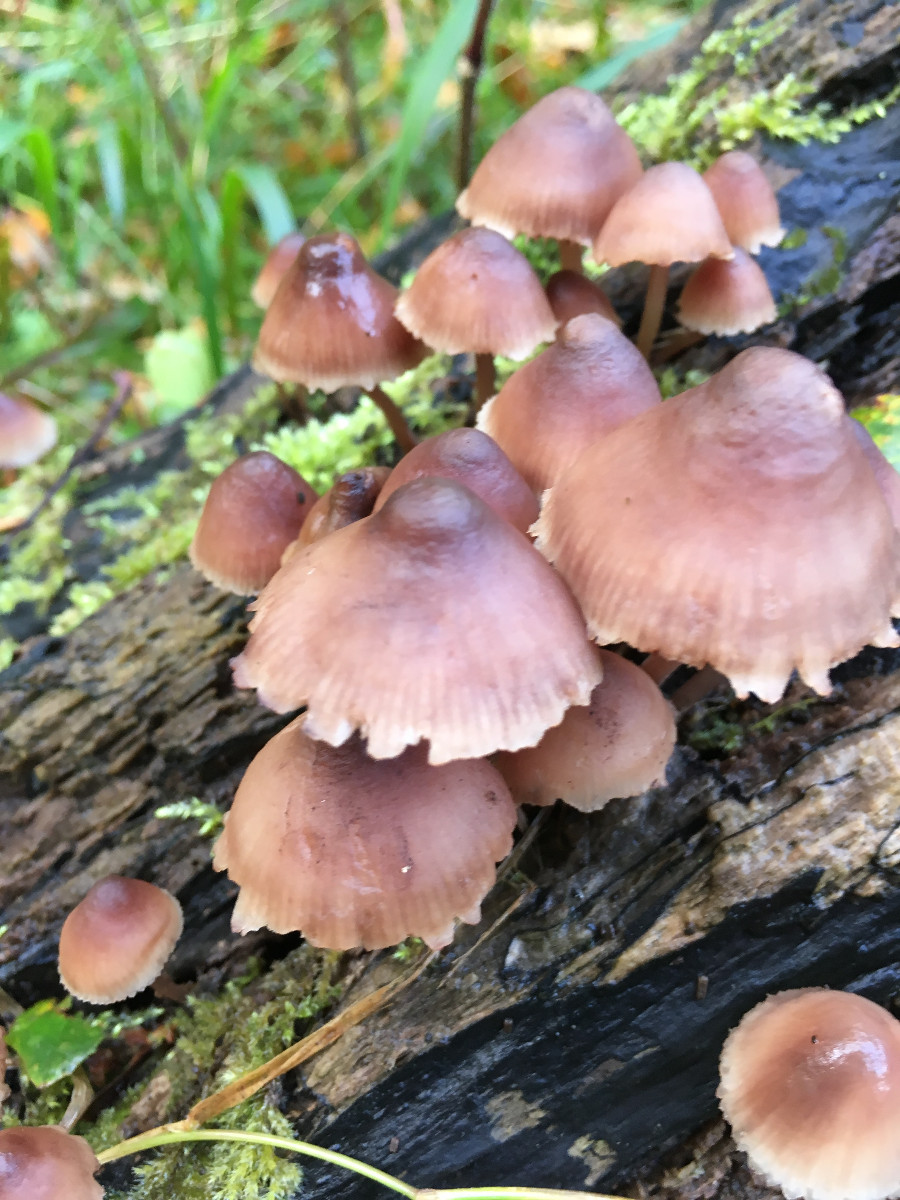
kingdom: Fungi
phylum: Basidiomycota
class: Agaricomycetes
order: Agaricales
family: Mycenaceae
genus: Mycena
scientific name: Mycena haematopus
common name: blødende huesvamp
